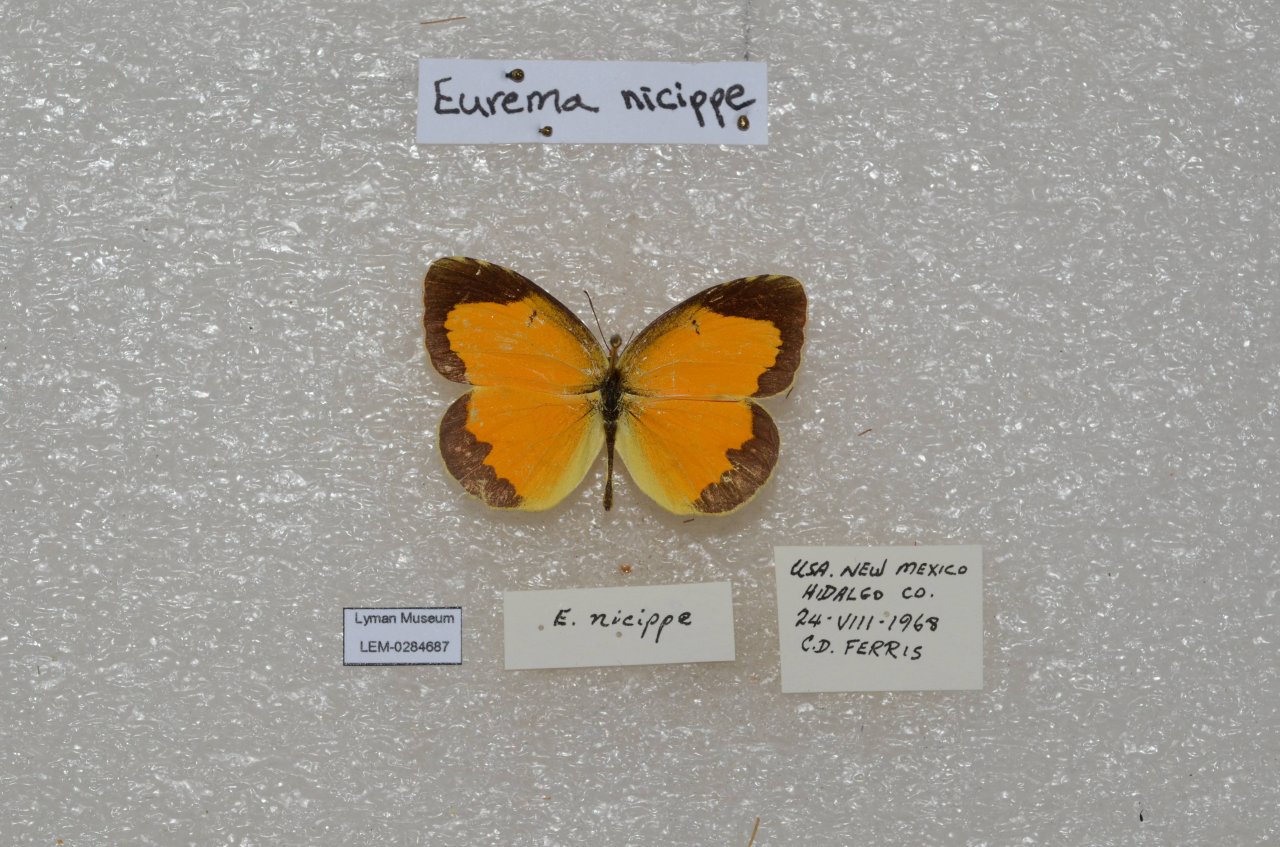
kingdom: Animalia
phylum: Arthropoda
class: Insecta
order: Lepidoptera
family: Pieridae
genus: Abaeis
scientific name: Abaeis nicippe
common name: Sleepy Orange
